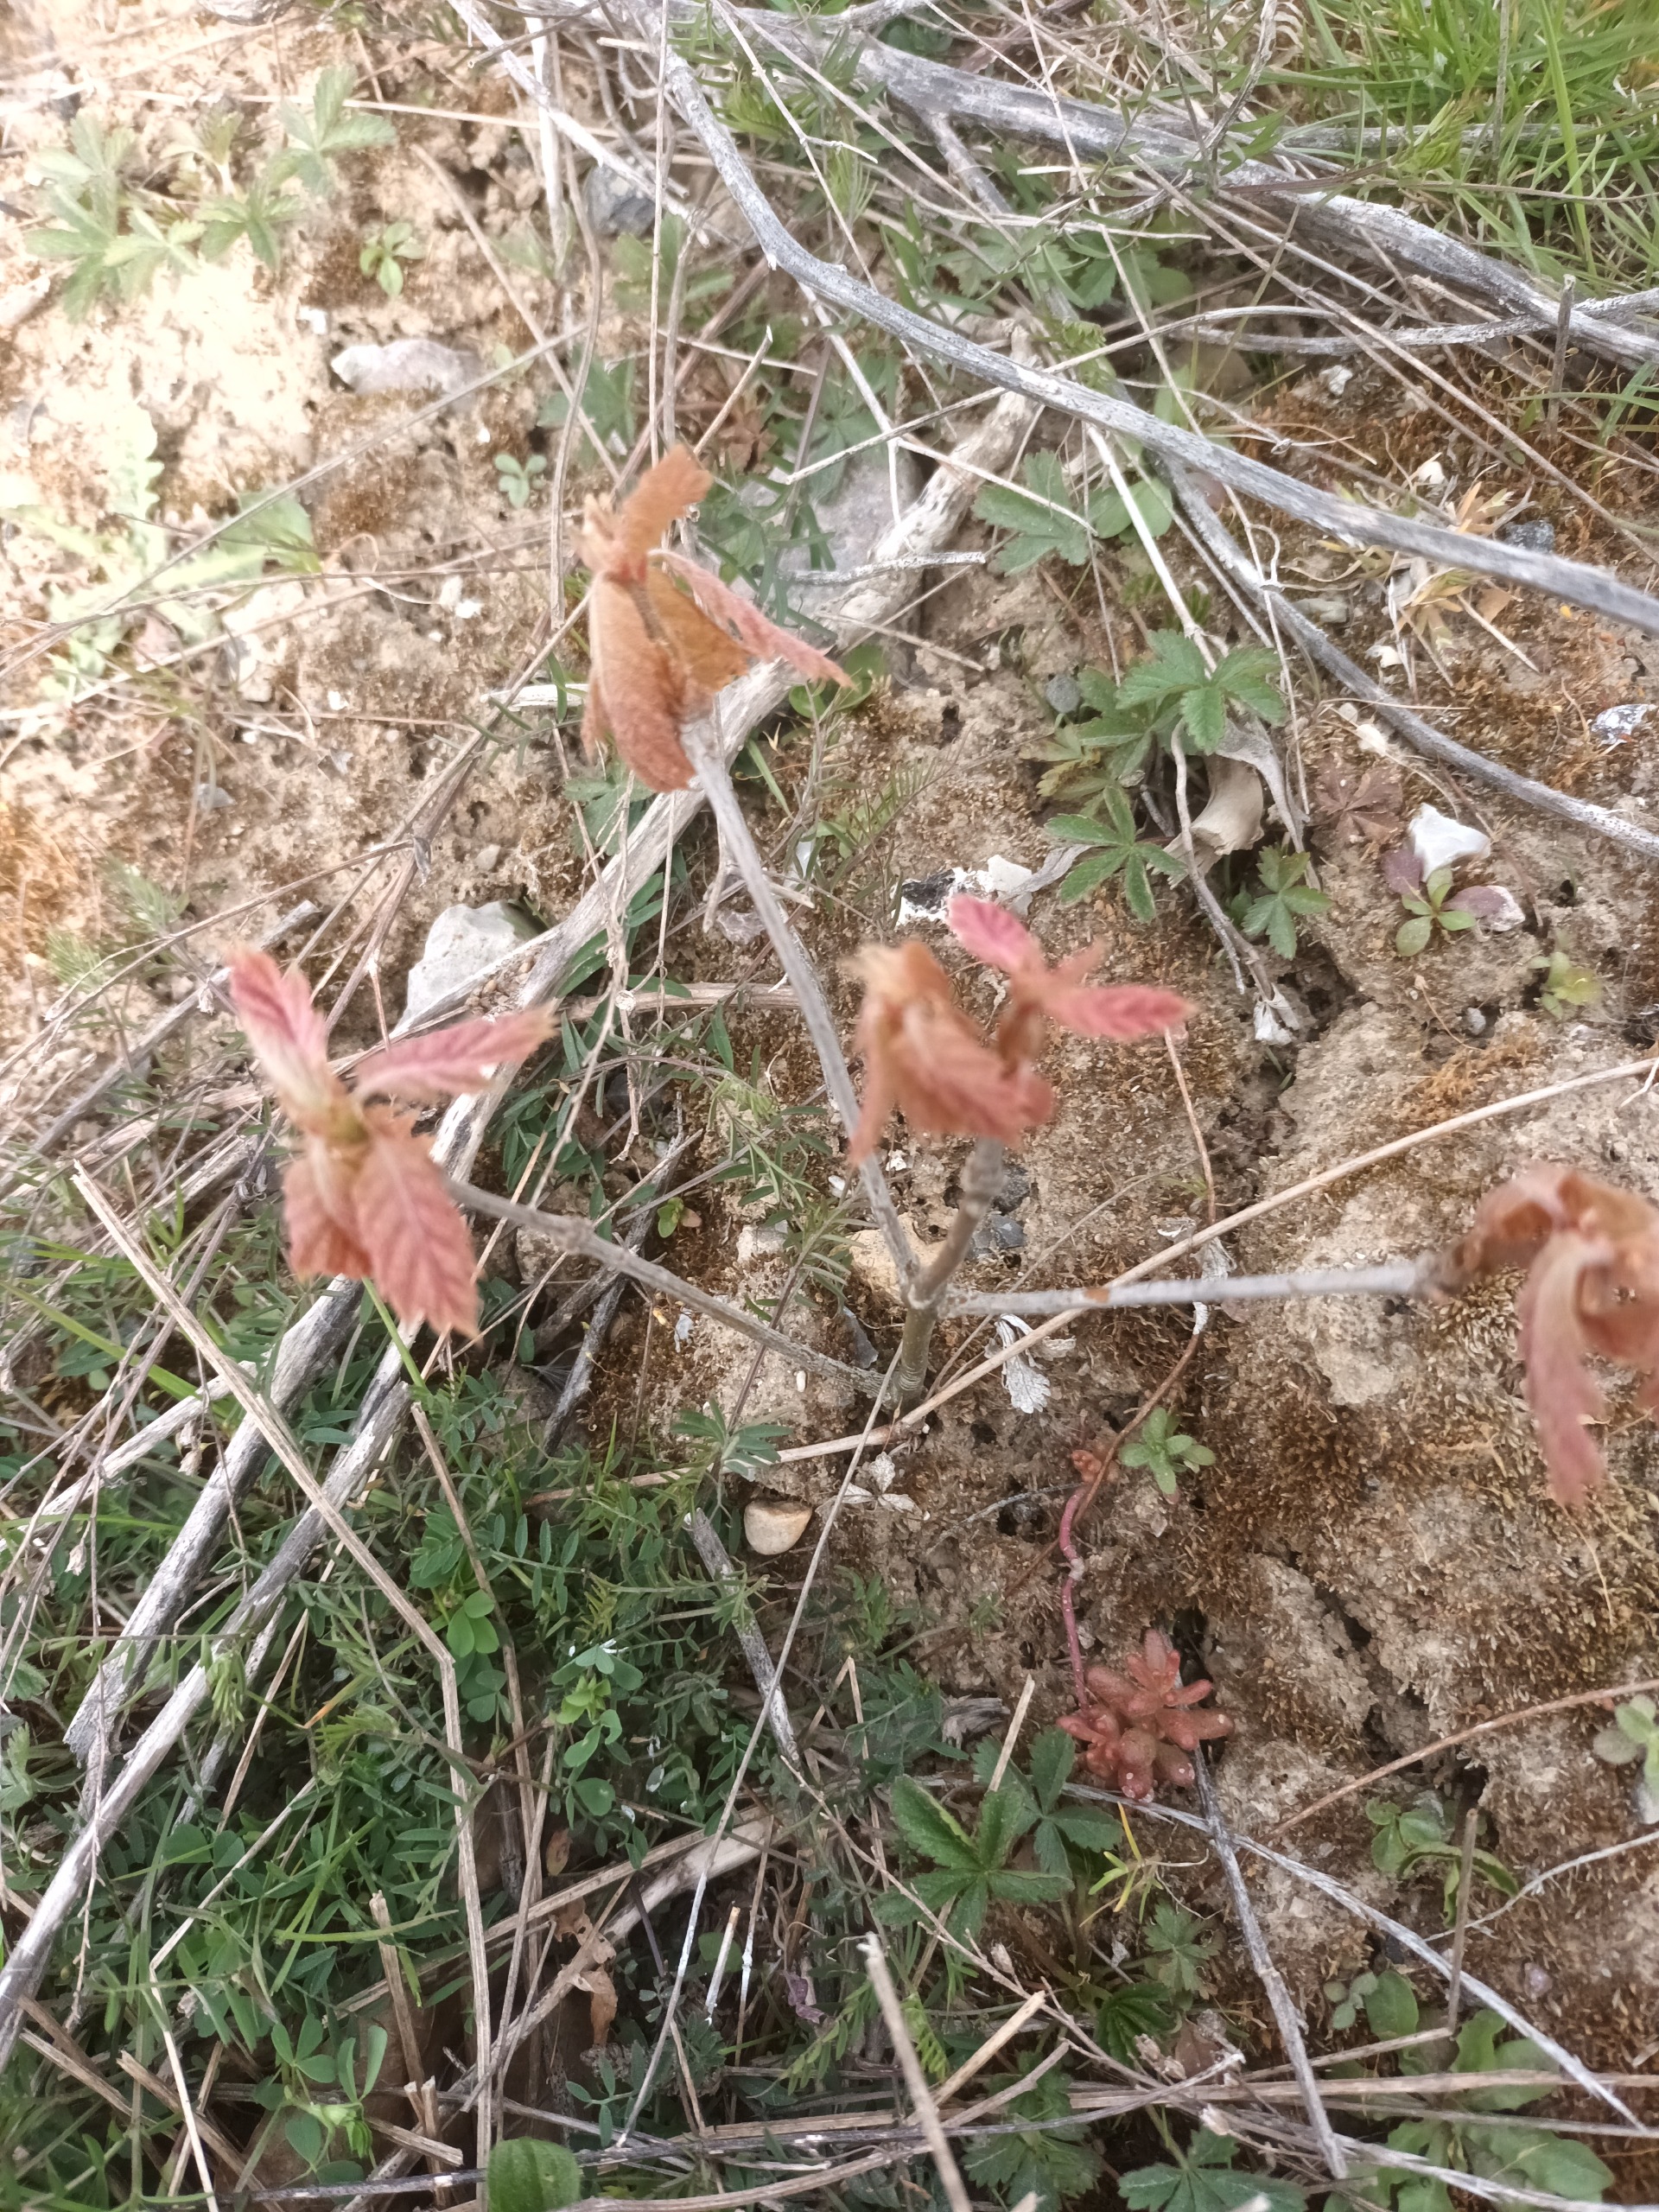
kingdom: Plantae
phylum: Tracheophyta
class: Magnoliopsida
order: Fagales
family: Fagaceae
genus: Quercus
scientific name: Quercus cerris
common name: Frynse-eg
